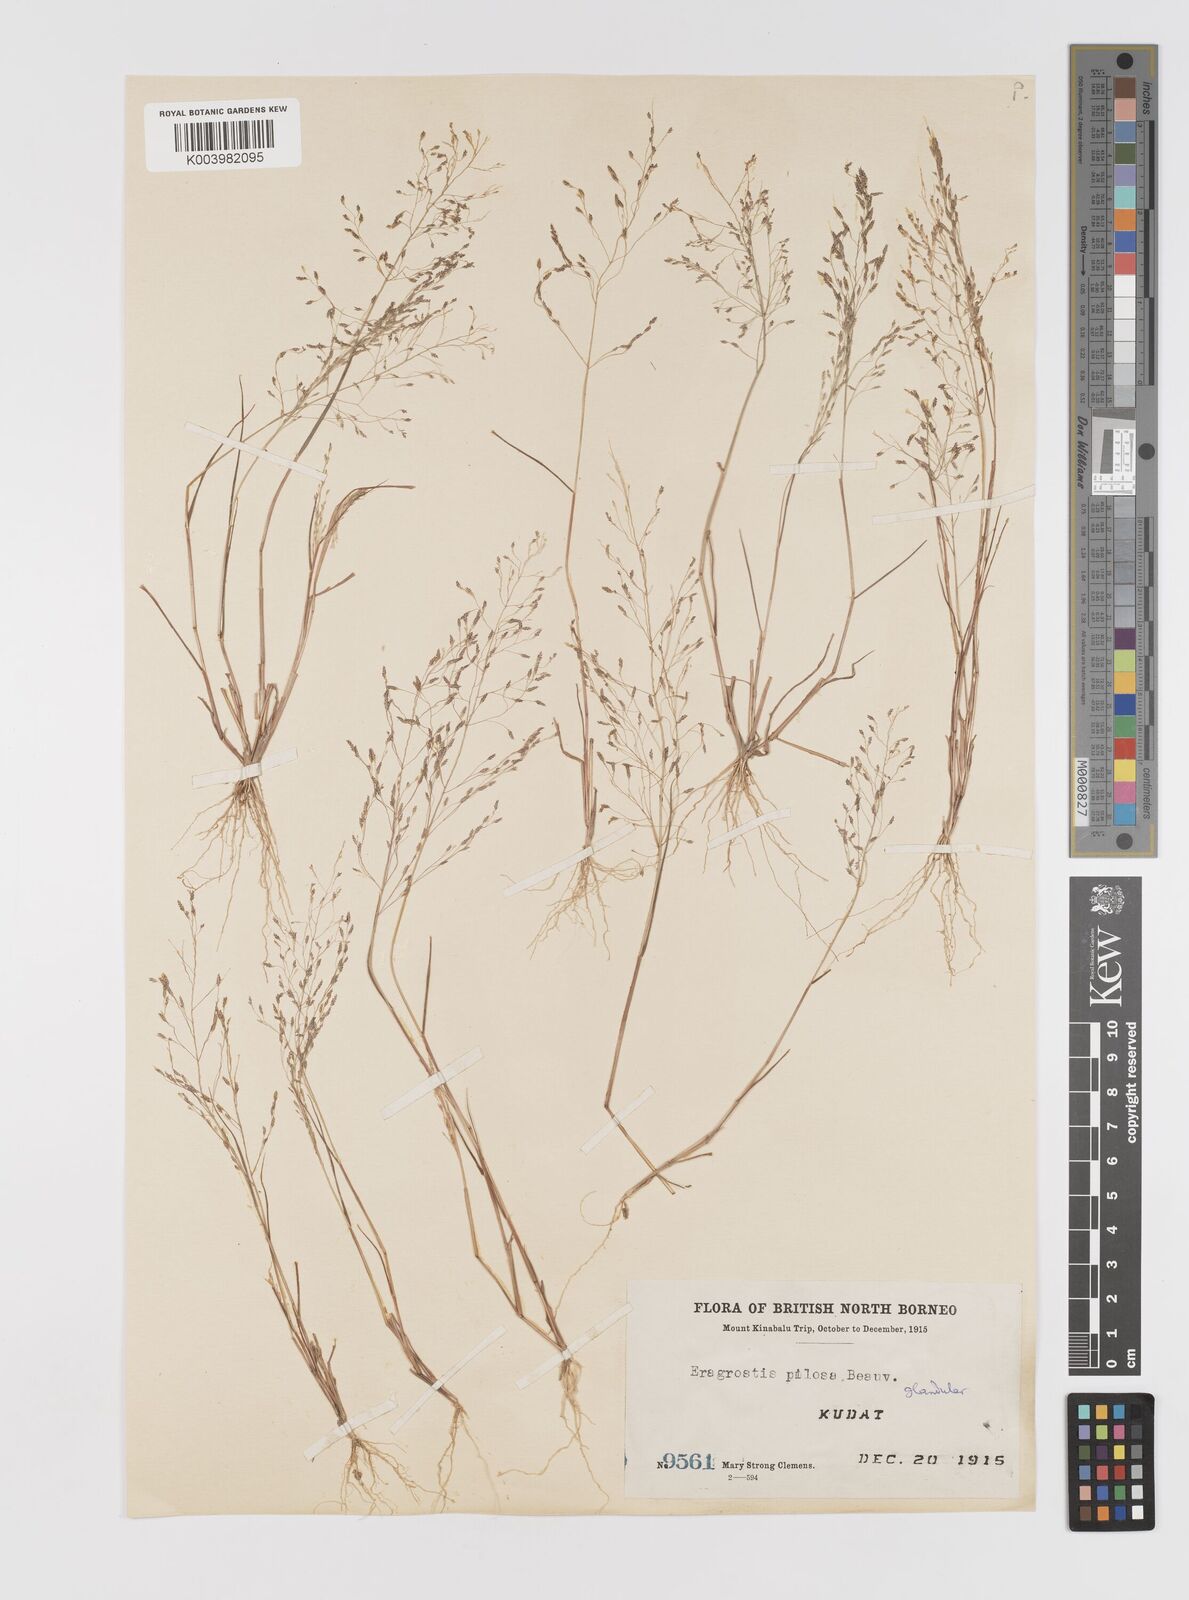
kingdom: Plantae
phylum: Tracheophyta
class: Liliopsida
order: Poales
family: Poaceae
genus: Eragrostis
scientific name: Eragrostis pilosa
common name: Indian lovegrass
